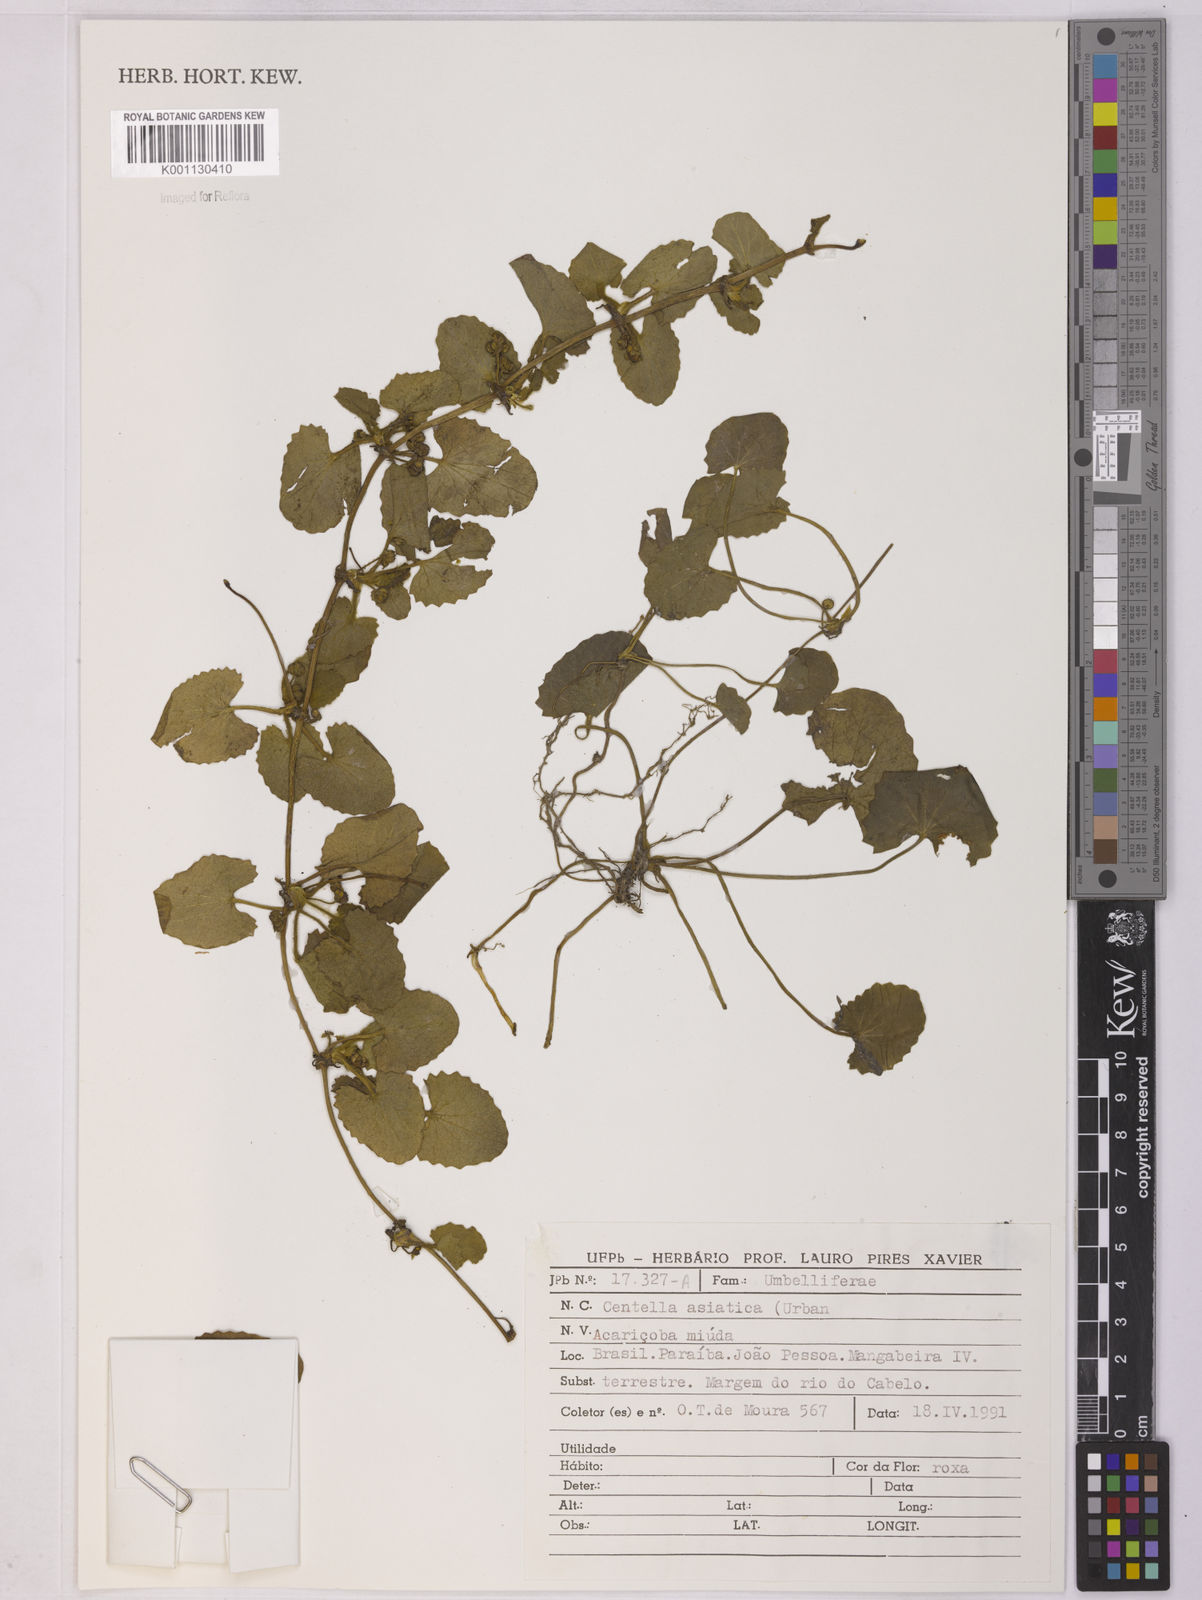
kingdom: Plantae
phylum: Tracheophyta
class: Magnoliopsida
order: Apiales
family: Apiaceae
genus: Centella
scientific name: Centella asiatica
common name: Spadeleaf
